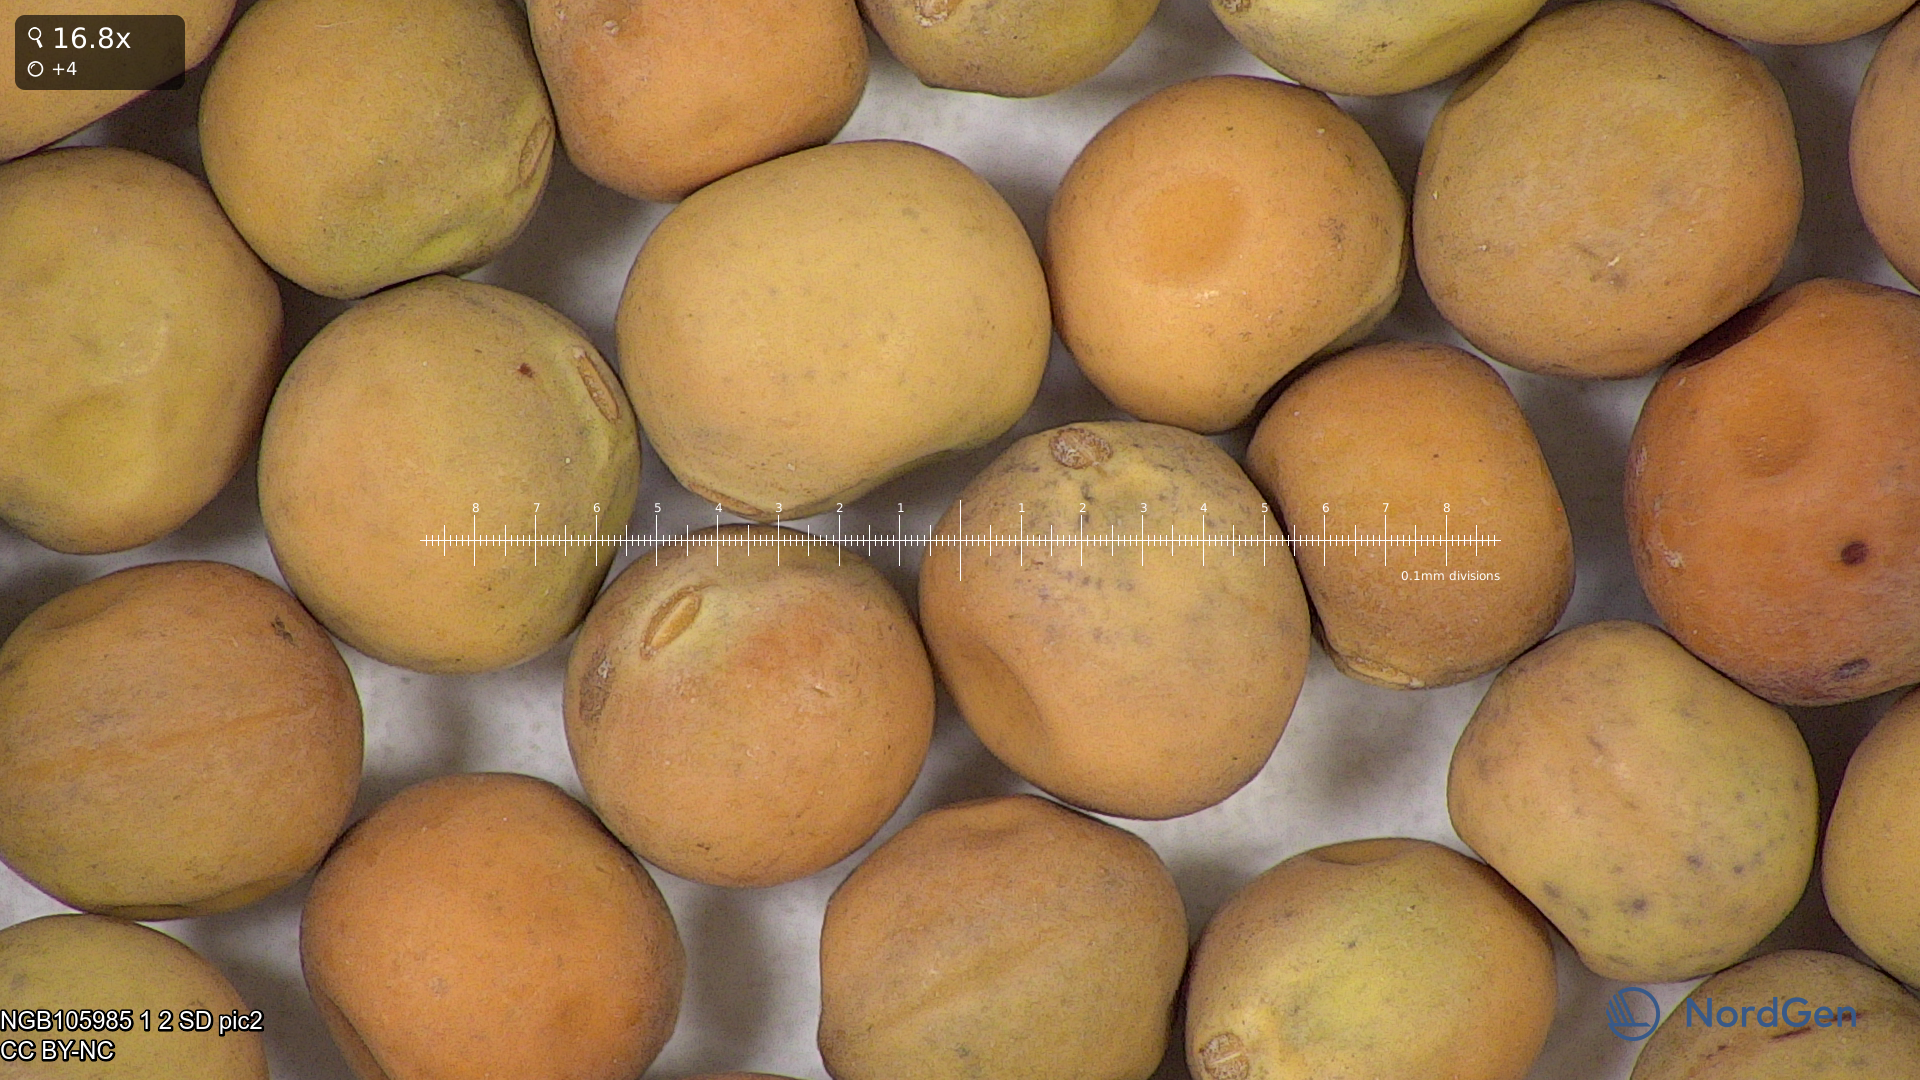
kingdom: Plantae
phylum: Tracheophyta
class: Magnoliopsida
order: Fabales
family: Fabaceae
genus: Lathyrus
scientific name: Lathyrus oleraceus
